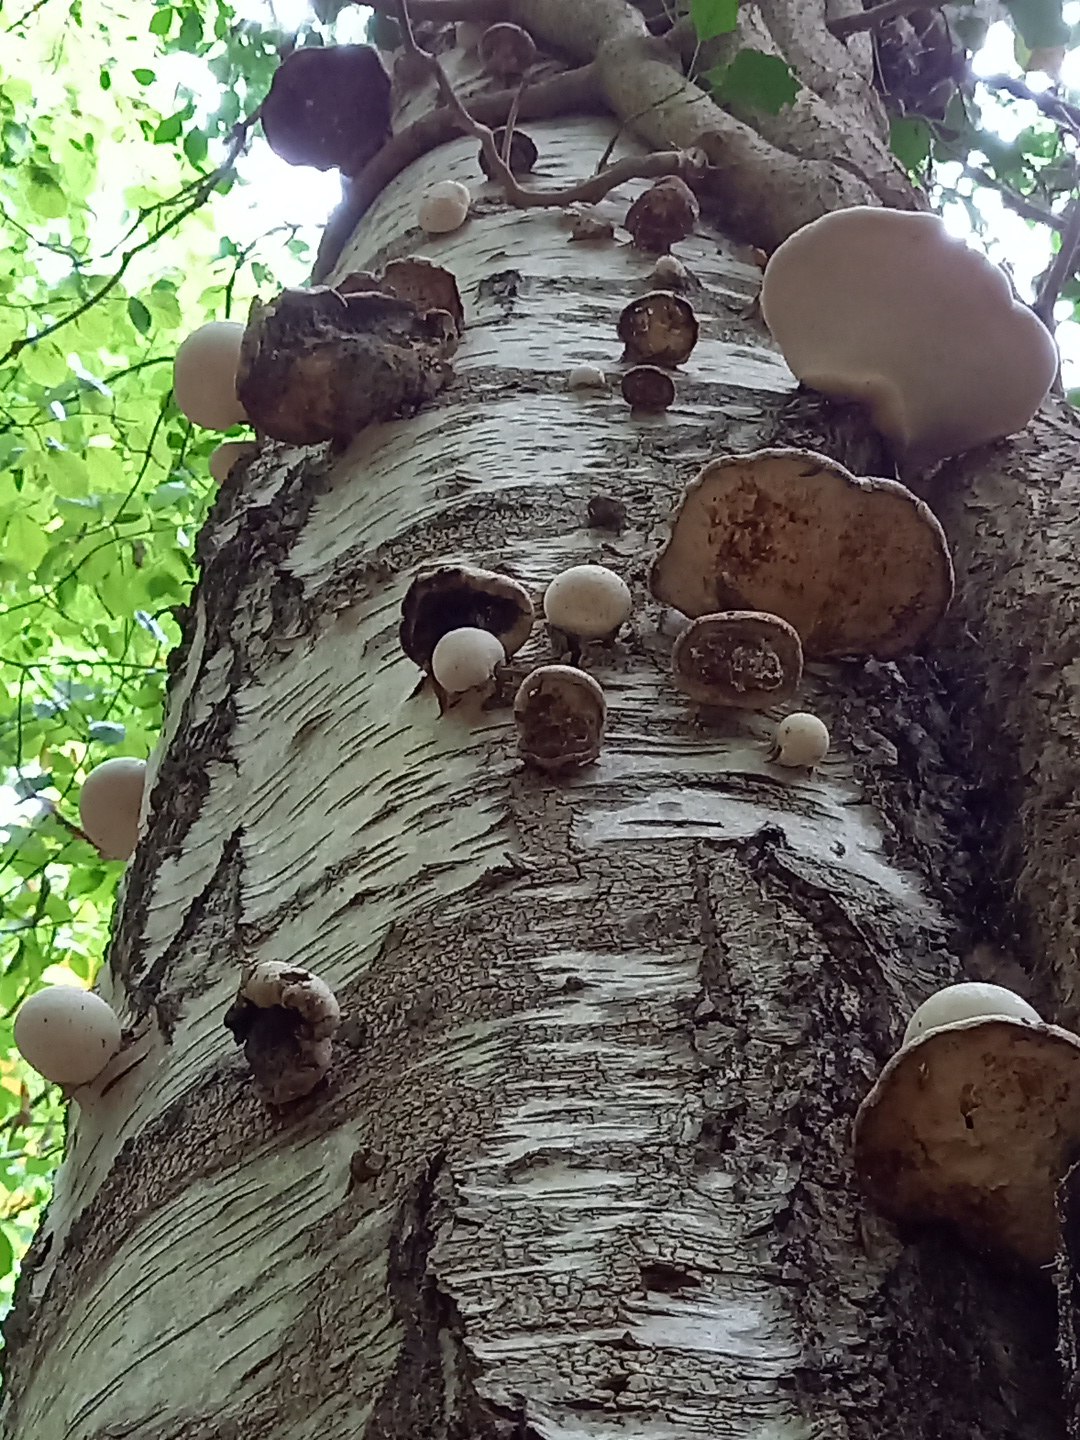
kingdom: Fungi
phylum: Basidiomycota
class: Agaricomycetes
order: Polyporales
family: Fomitopsidaceae
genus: Fomitopsis
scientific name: Fomitopsis betulina
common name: birkeporesvamp
